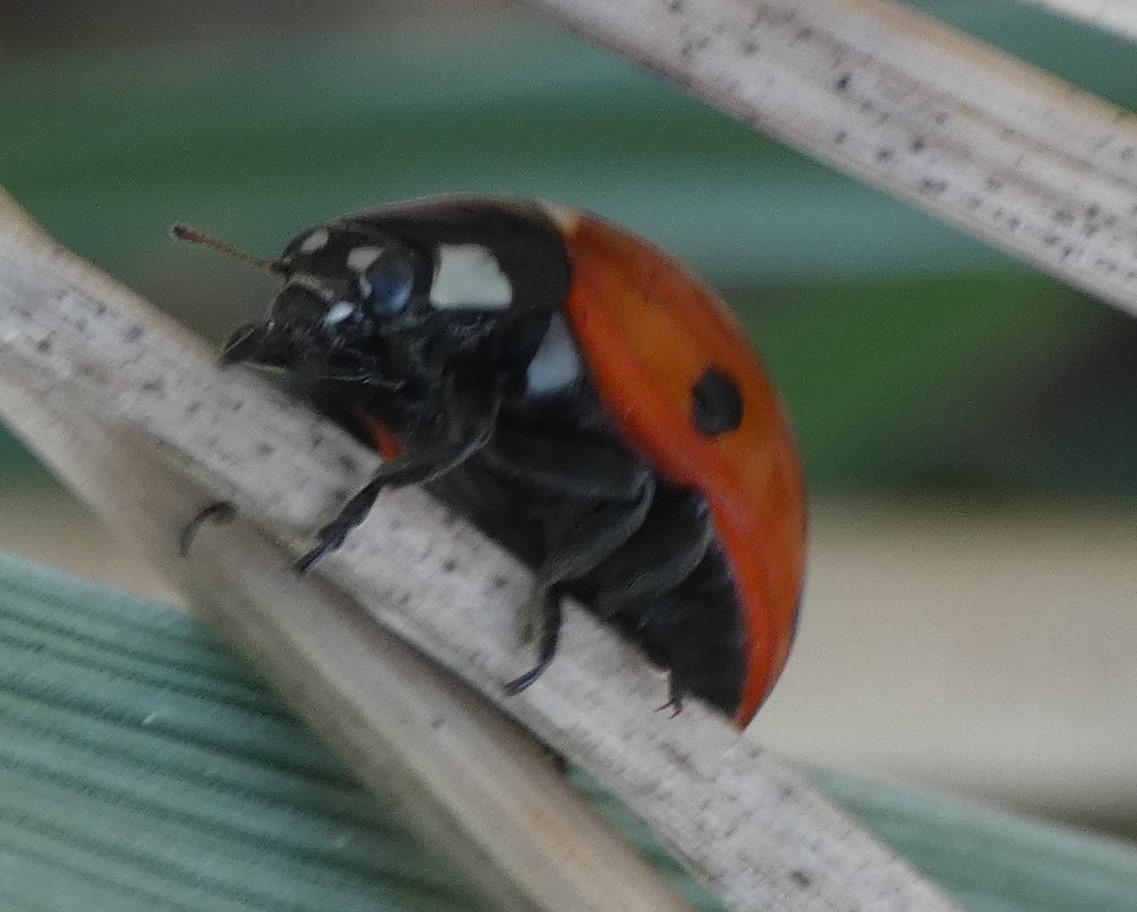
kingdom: Animalia
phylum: Arthropoda
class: Insecta
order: Coleoptera
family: Coccinellidae
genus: Coccinella
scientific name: Coccinella septempunctata
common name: Syvplettet mariehøne
